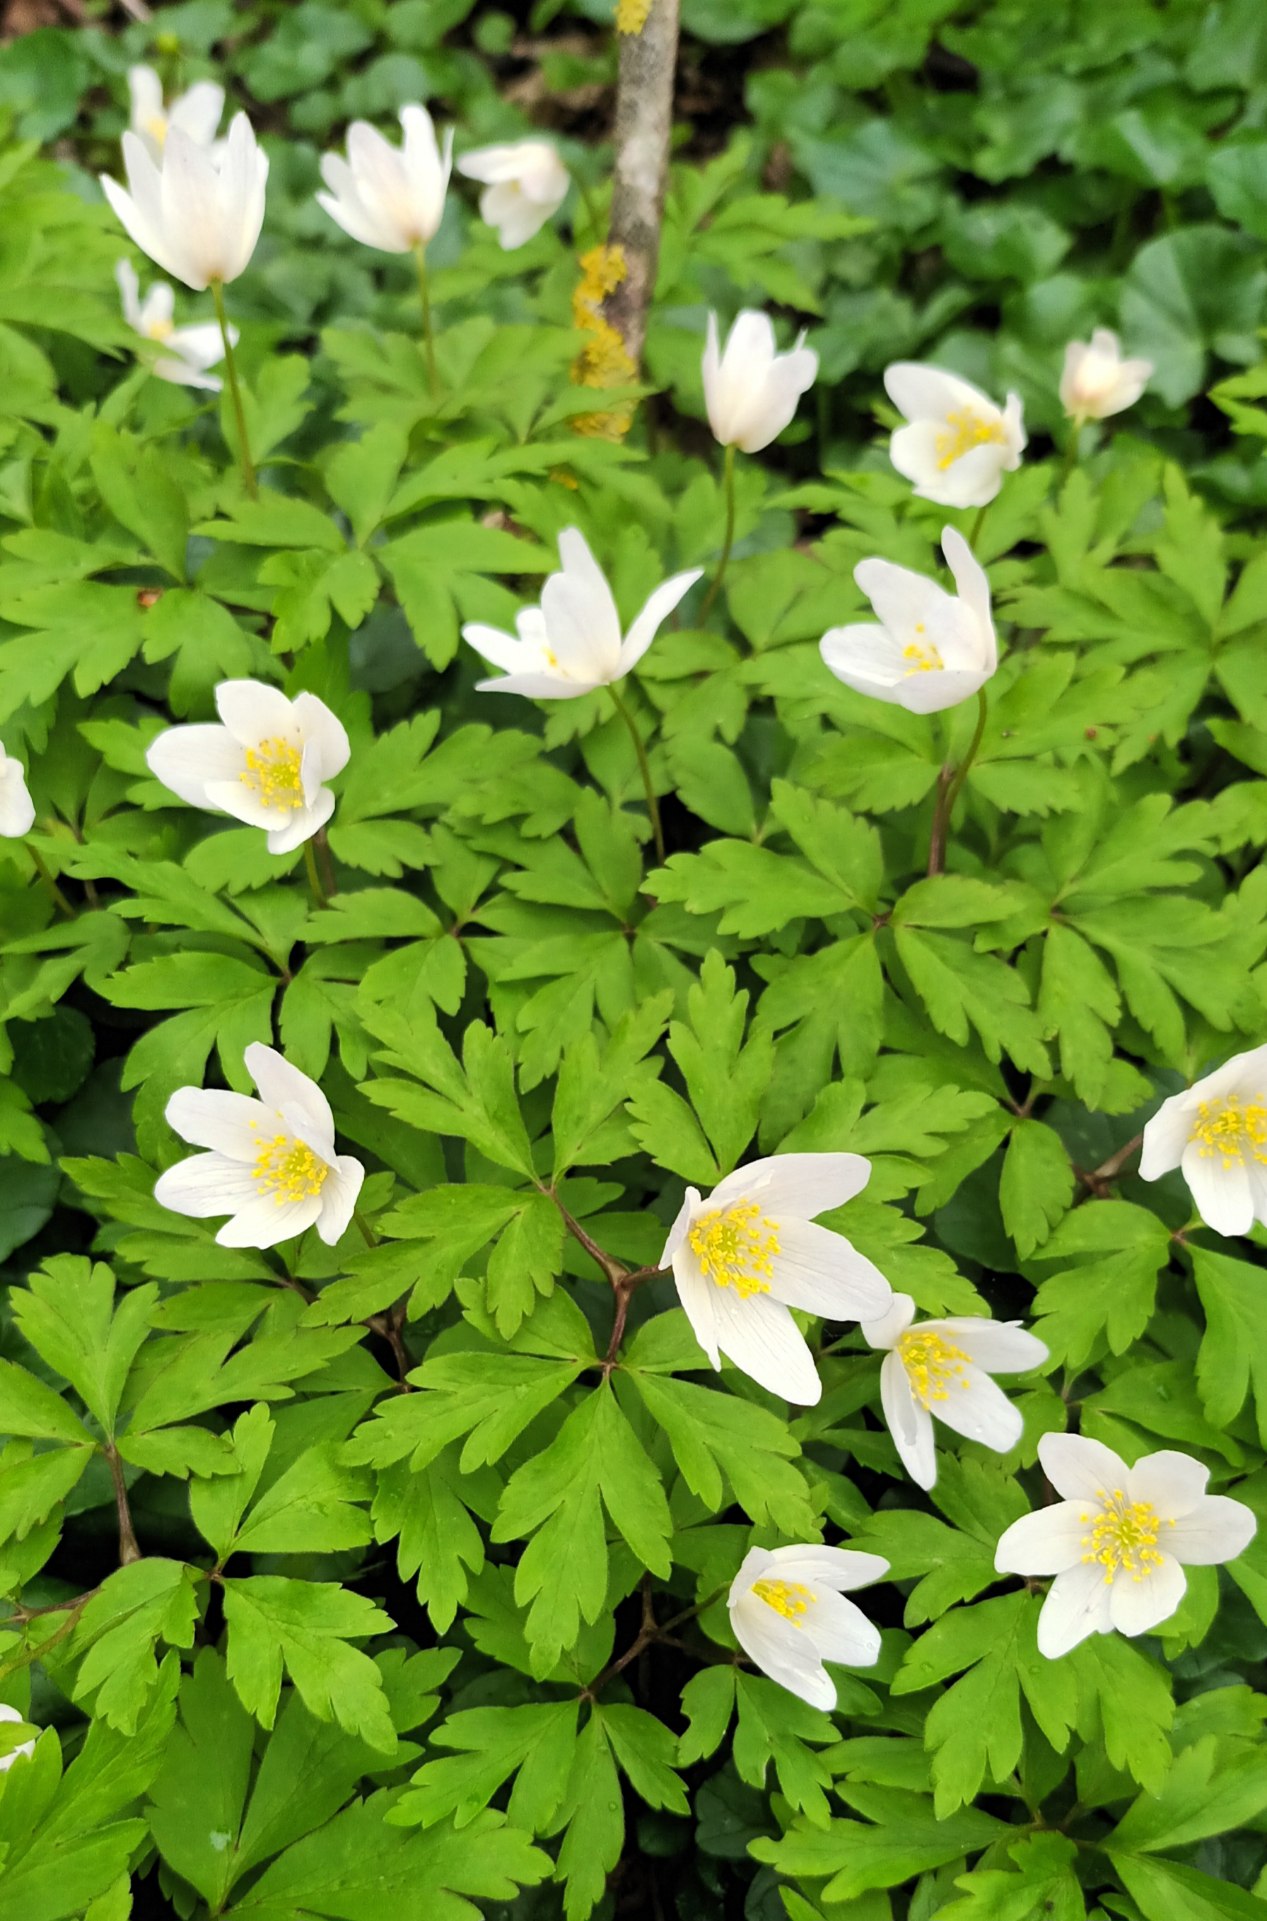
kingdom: Plantae
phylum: Tracheophyta
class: Magnoliopsida
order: Ranunculales
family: Ranunculaceae
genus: Anemone
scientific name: Anemone nemorosa
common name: Hvid anemone
